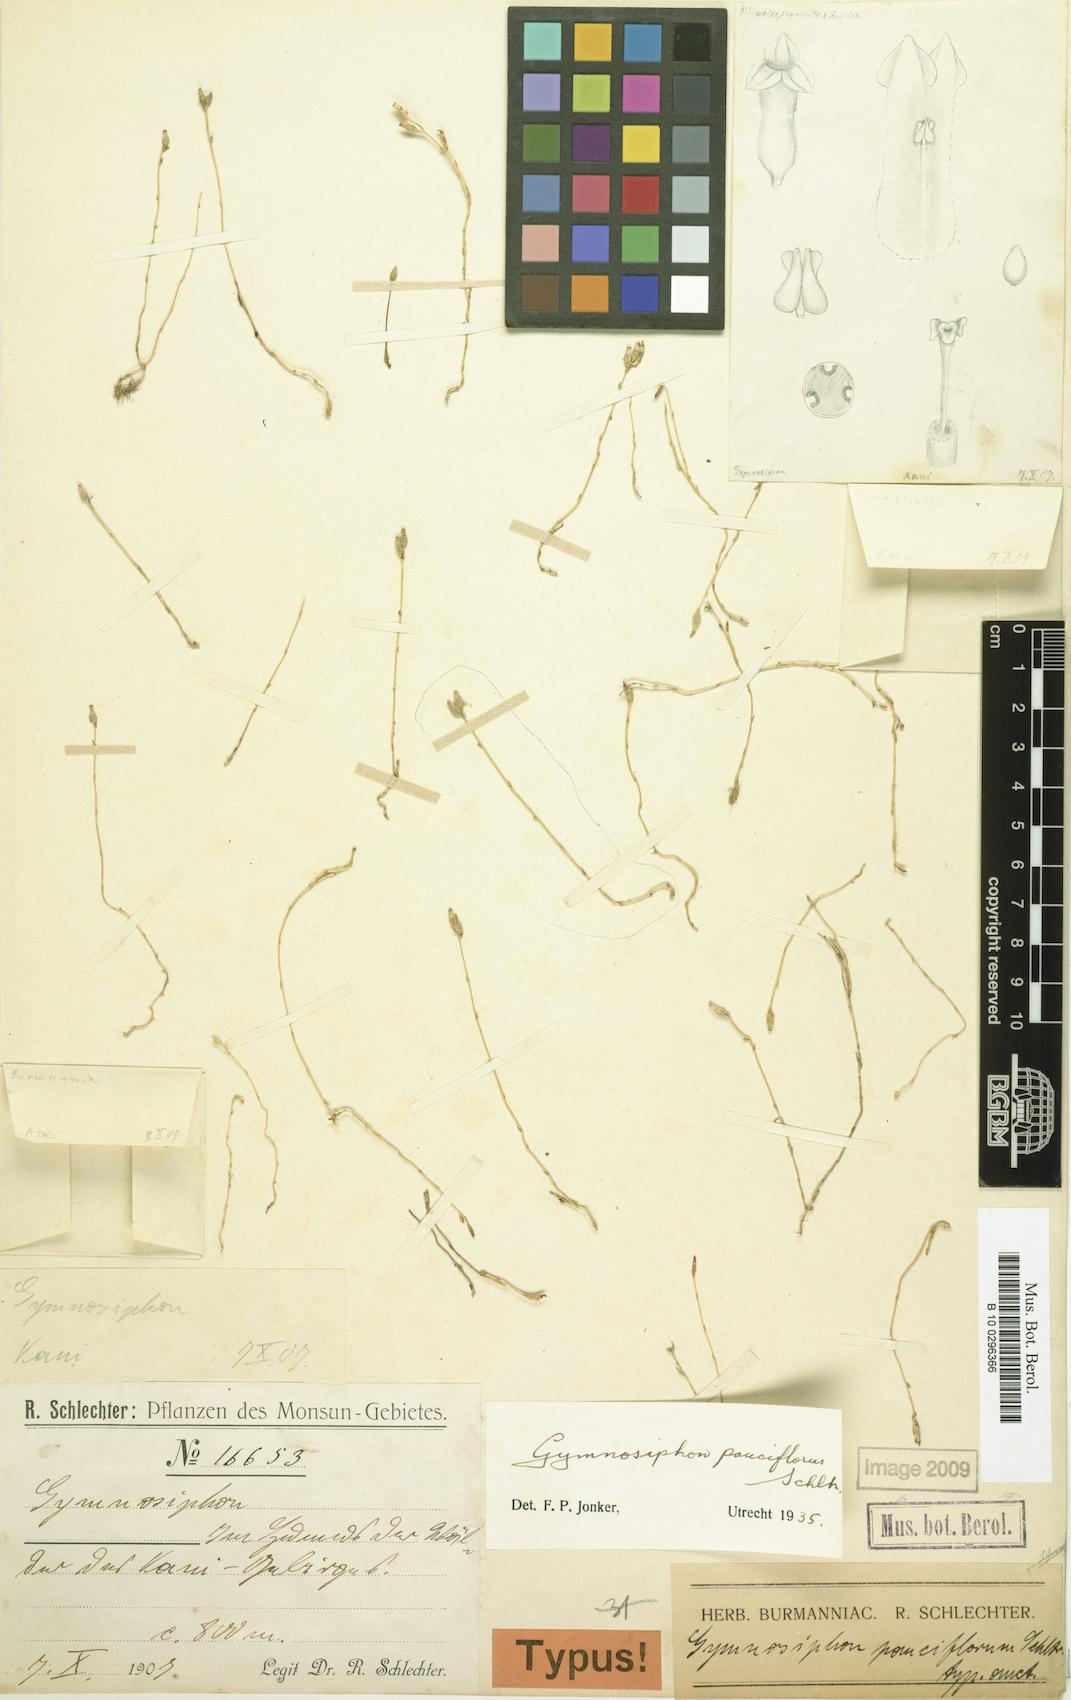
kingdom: Plantae
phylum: Tracheophyta
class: Liliopsida
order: Dioscoreales
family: Burmanniaceae
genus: Gymnosiphon
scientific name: Gymnosiphon pauciflorus
